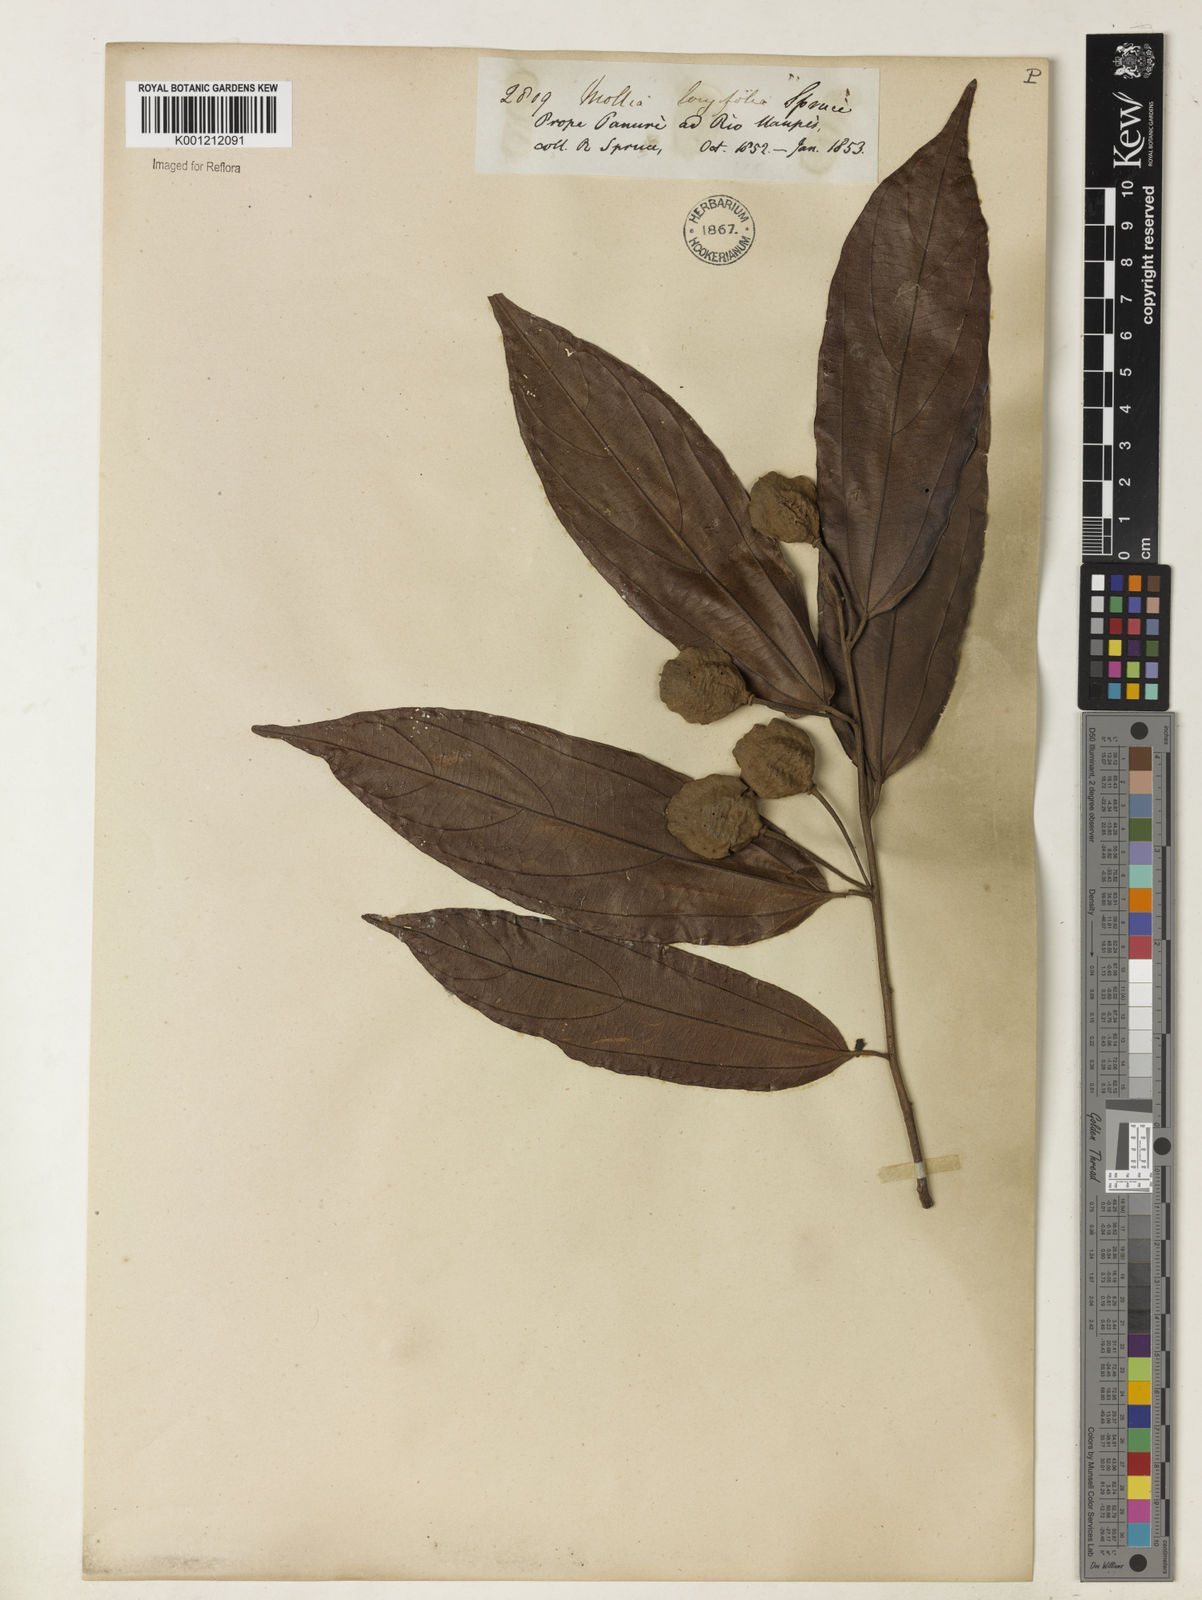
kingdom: Plantae
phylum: Tracheophyta
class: Magnoliopsida
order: Malvales
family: Malvaceae
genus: Mollia
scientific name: Mollia longifolia
